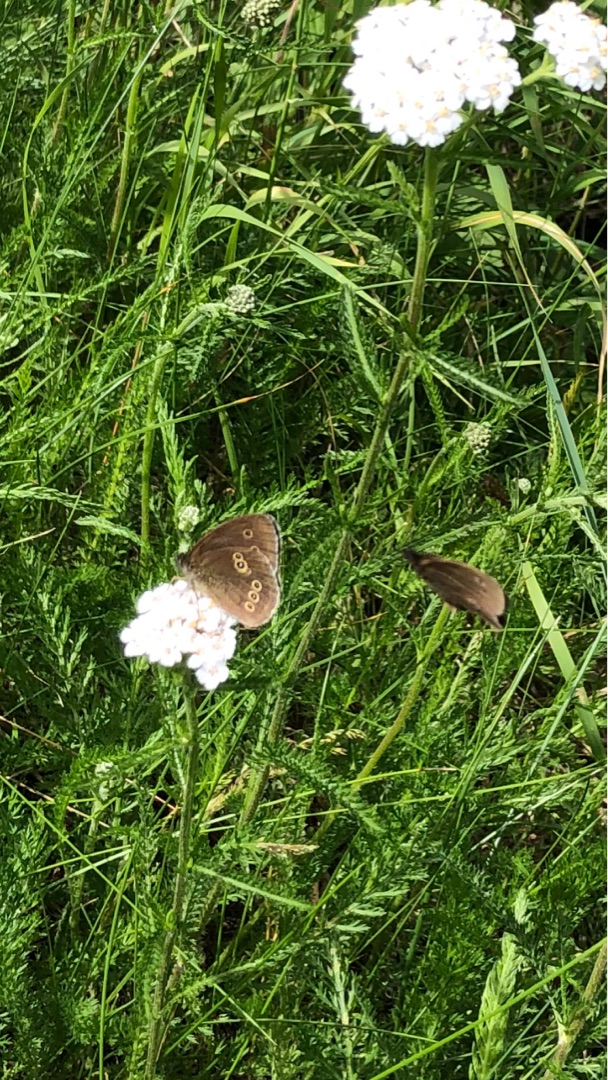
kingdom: Animalia
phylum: Arthropoda
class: Insecta
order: Lepidoptera
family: Nymphalidae
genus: Aphantopus
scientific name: Aphantopus hyperantus
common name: Engrandøje
